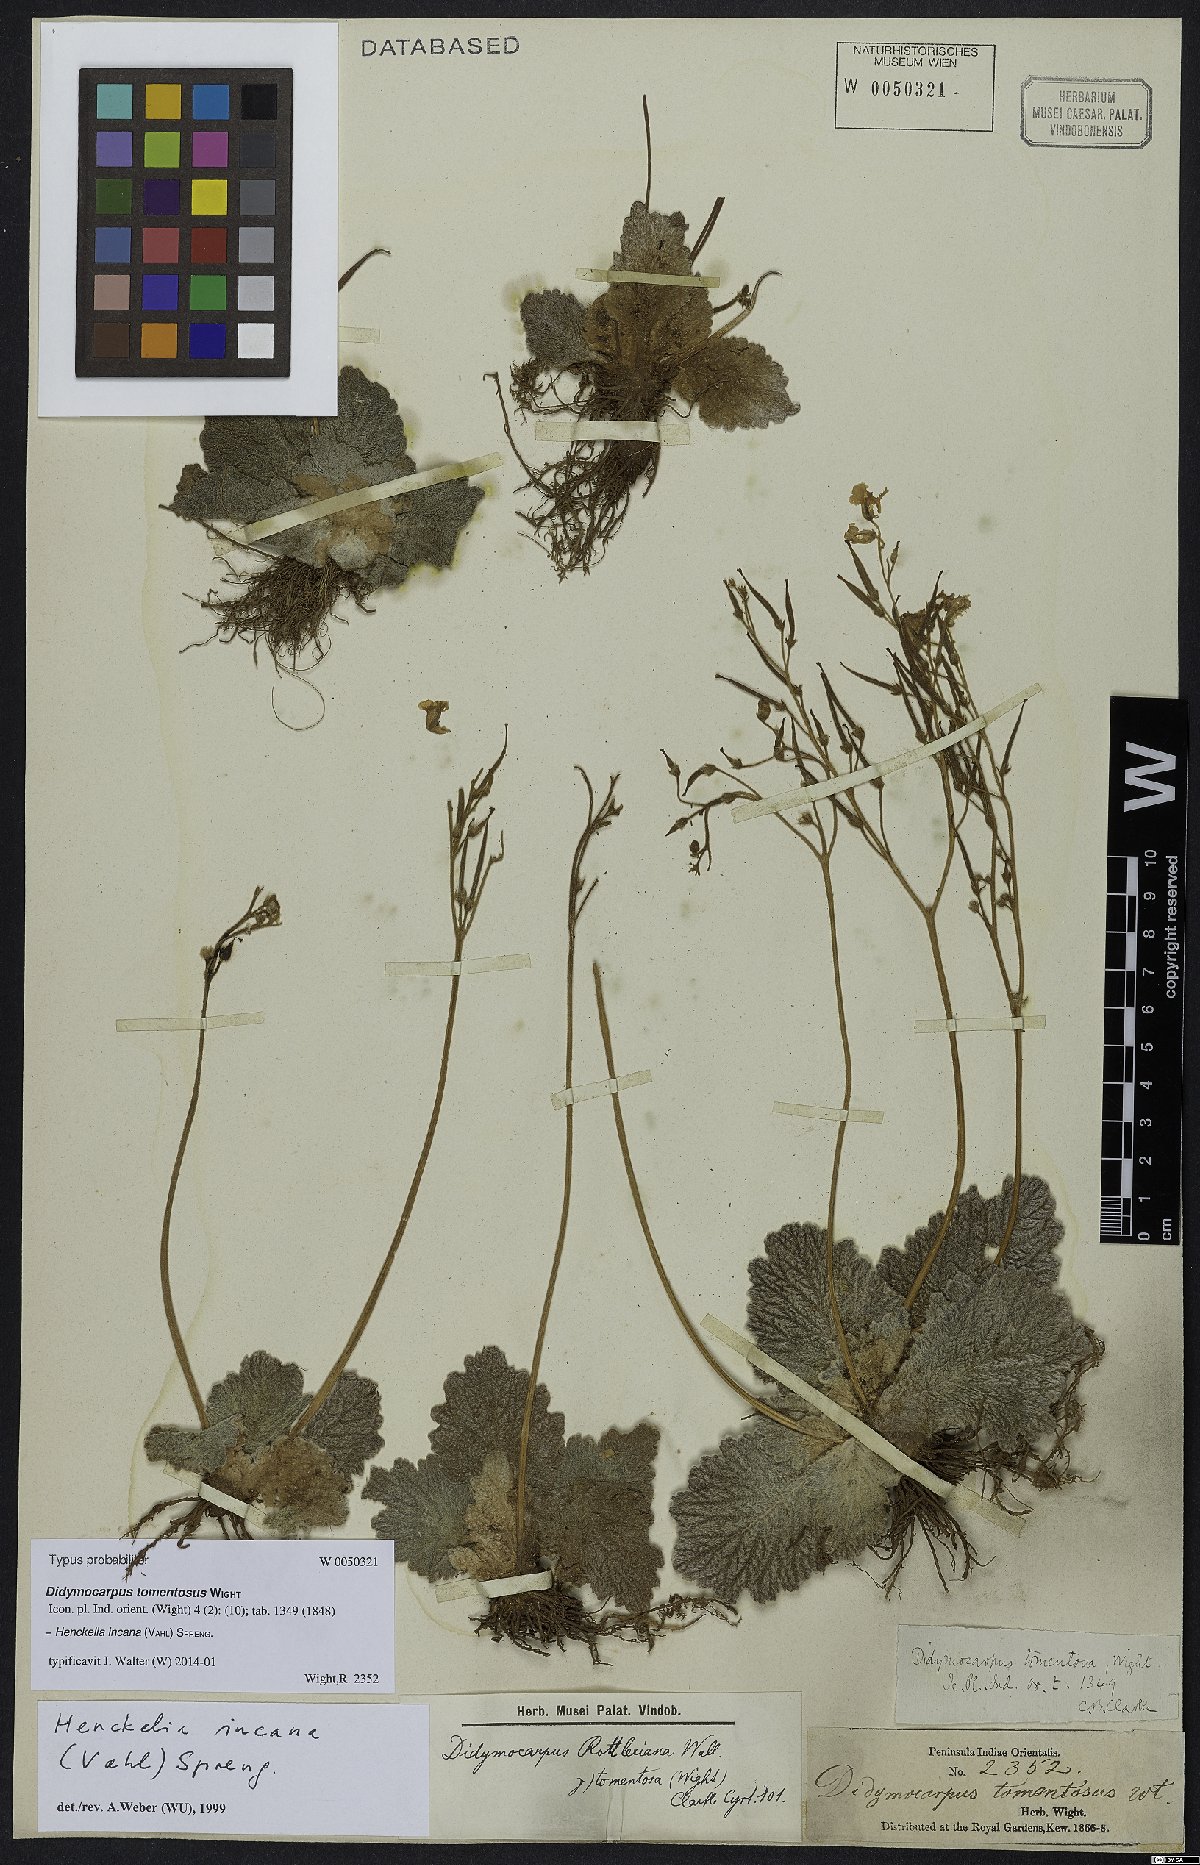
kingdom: Plantae
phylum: Tracheophyta
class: Magnoliopsida
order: Lamiales
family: Gesneriaceae
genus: Henckelia
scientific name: Henckelia incana
